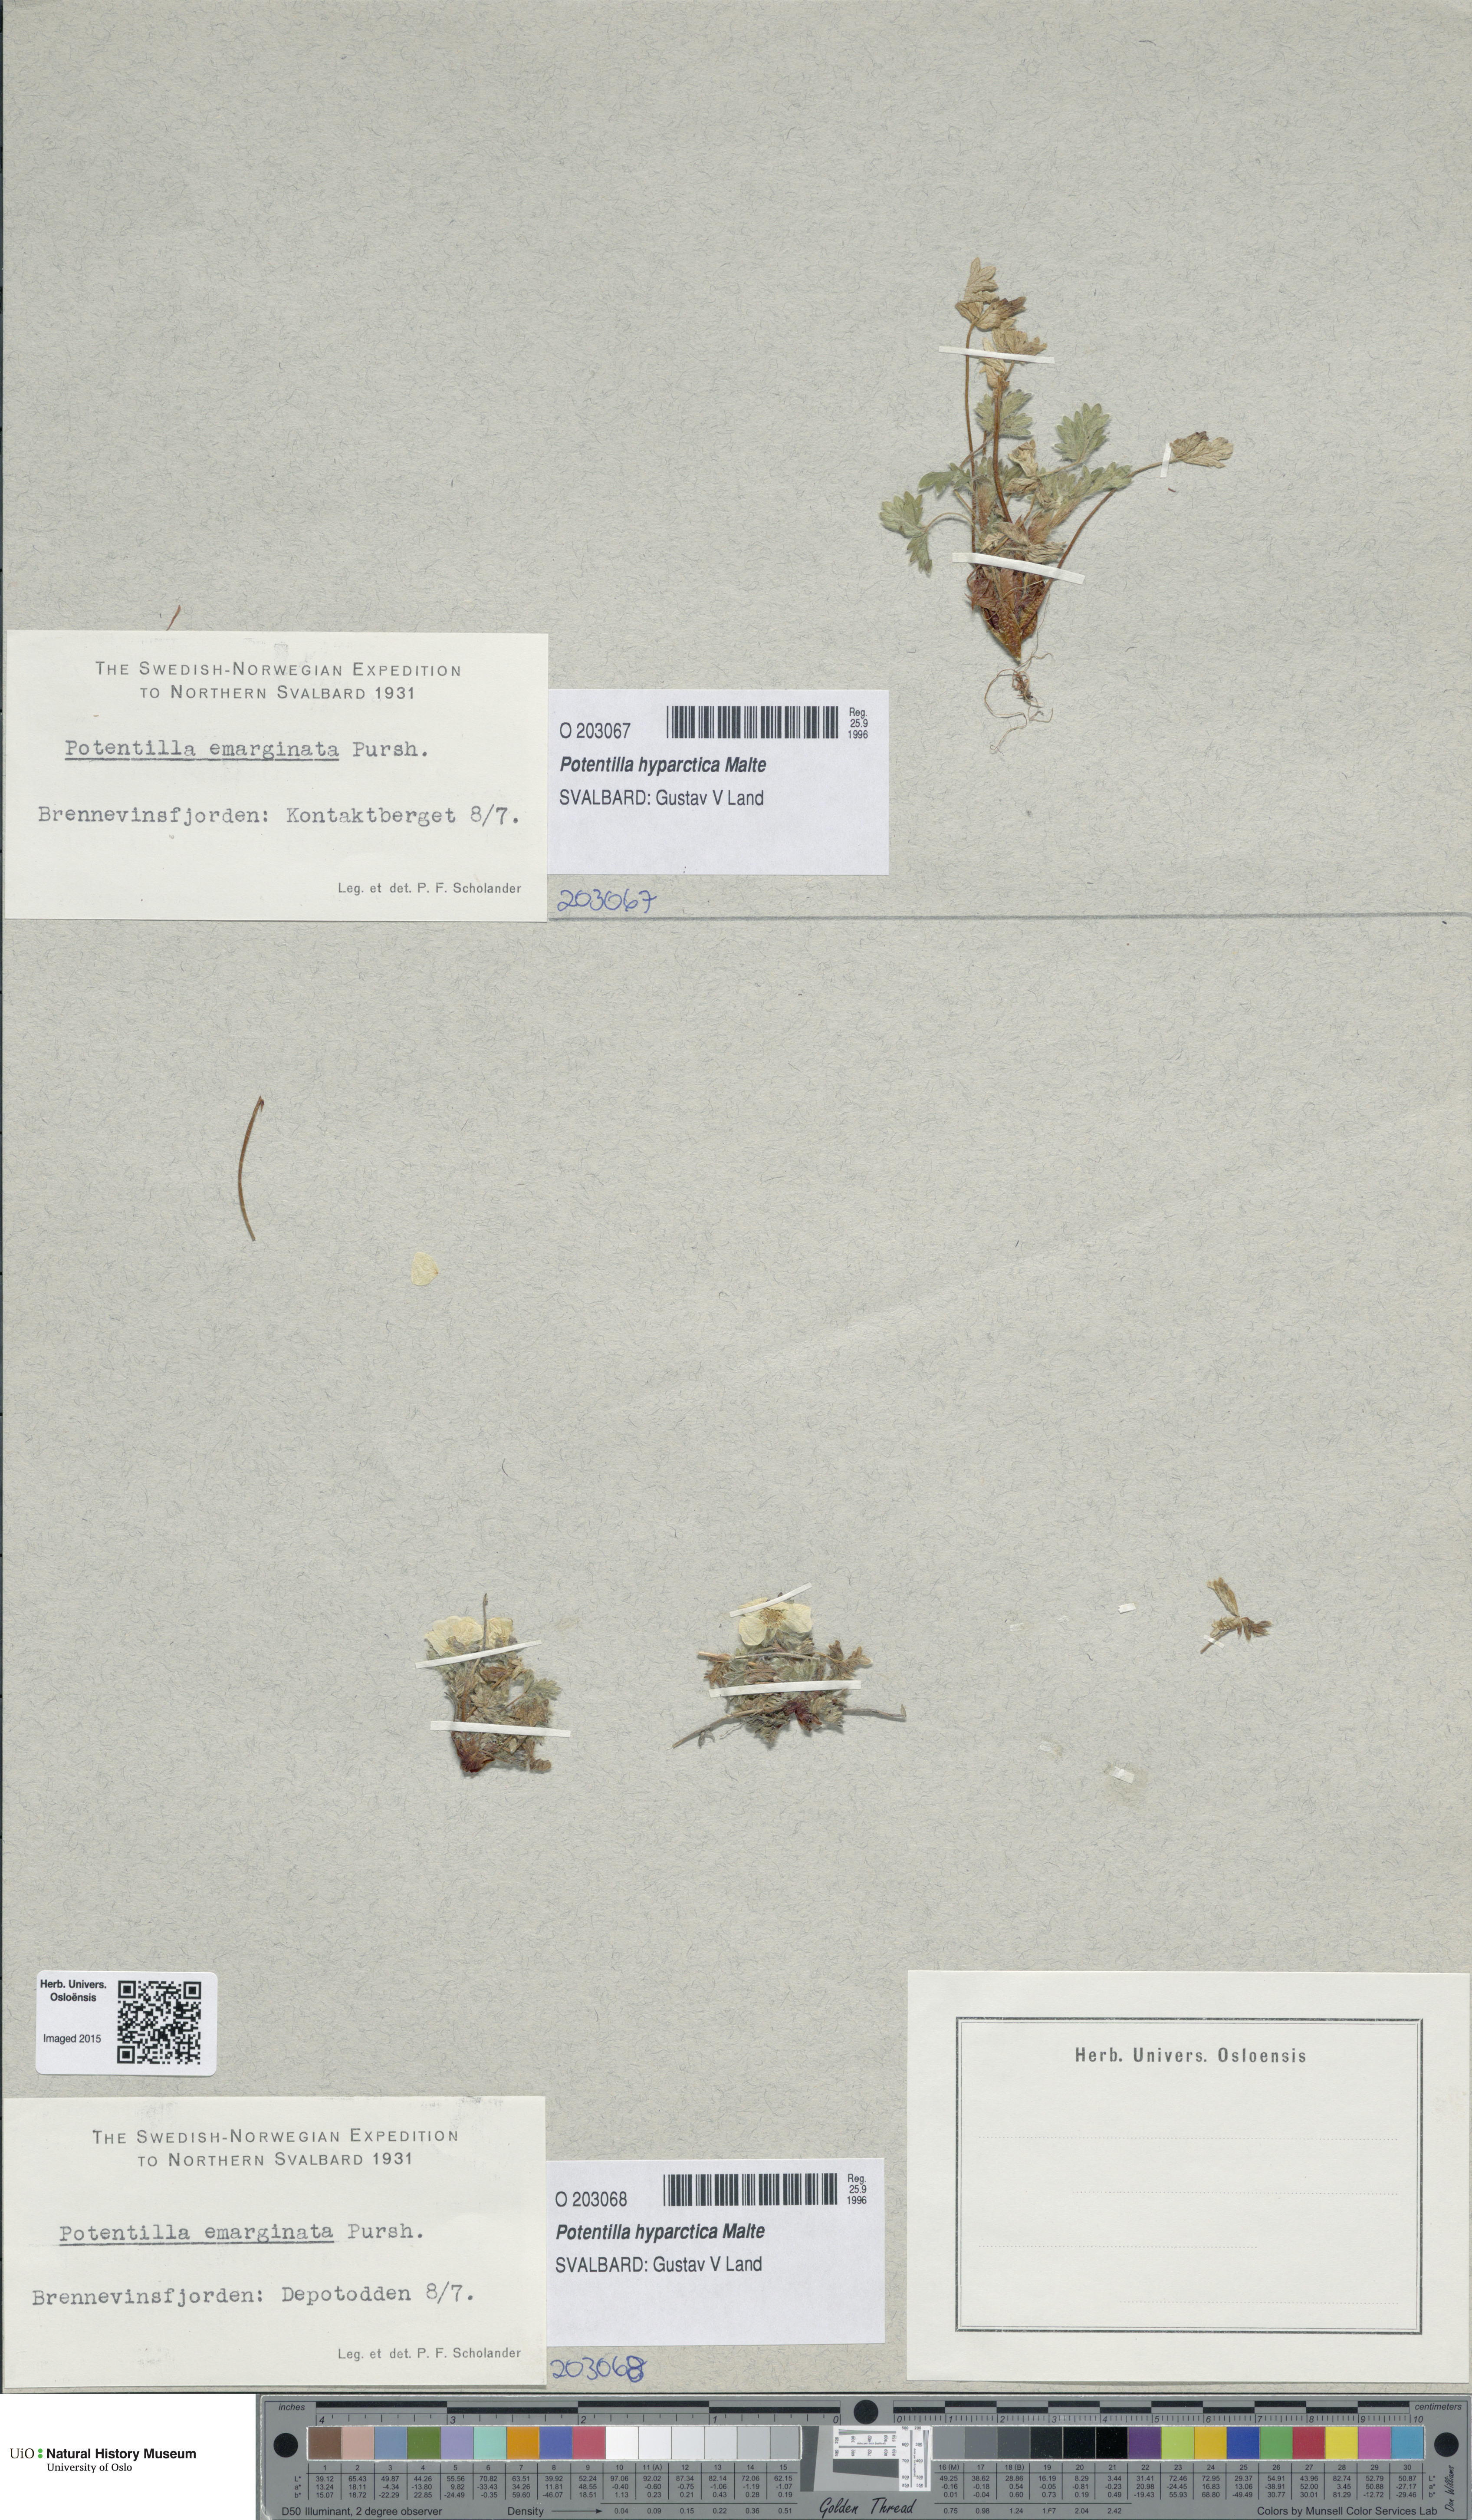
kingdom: Plantae
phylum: Tracheophyta
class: Magnoliopsida
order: Rosales
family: Rosaceae
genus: Potentilla
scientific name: Potentilla hyparctica
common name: Arctic cinquefoil
